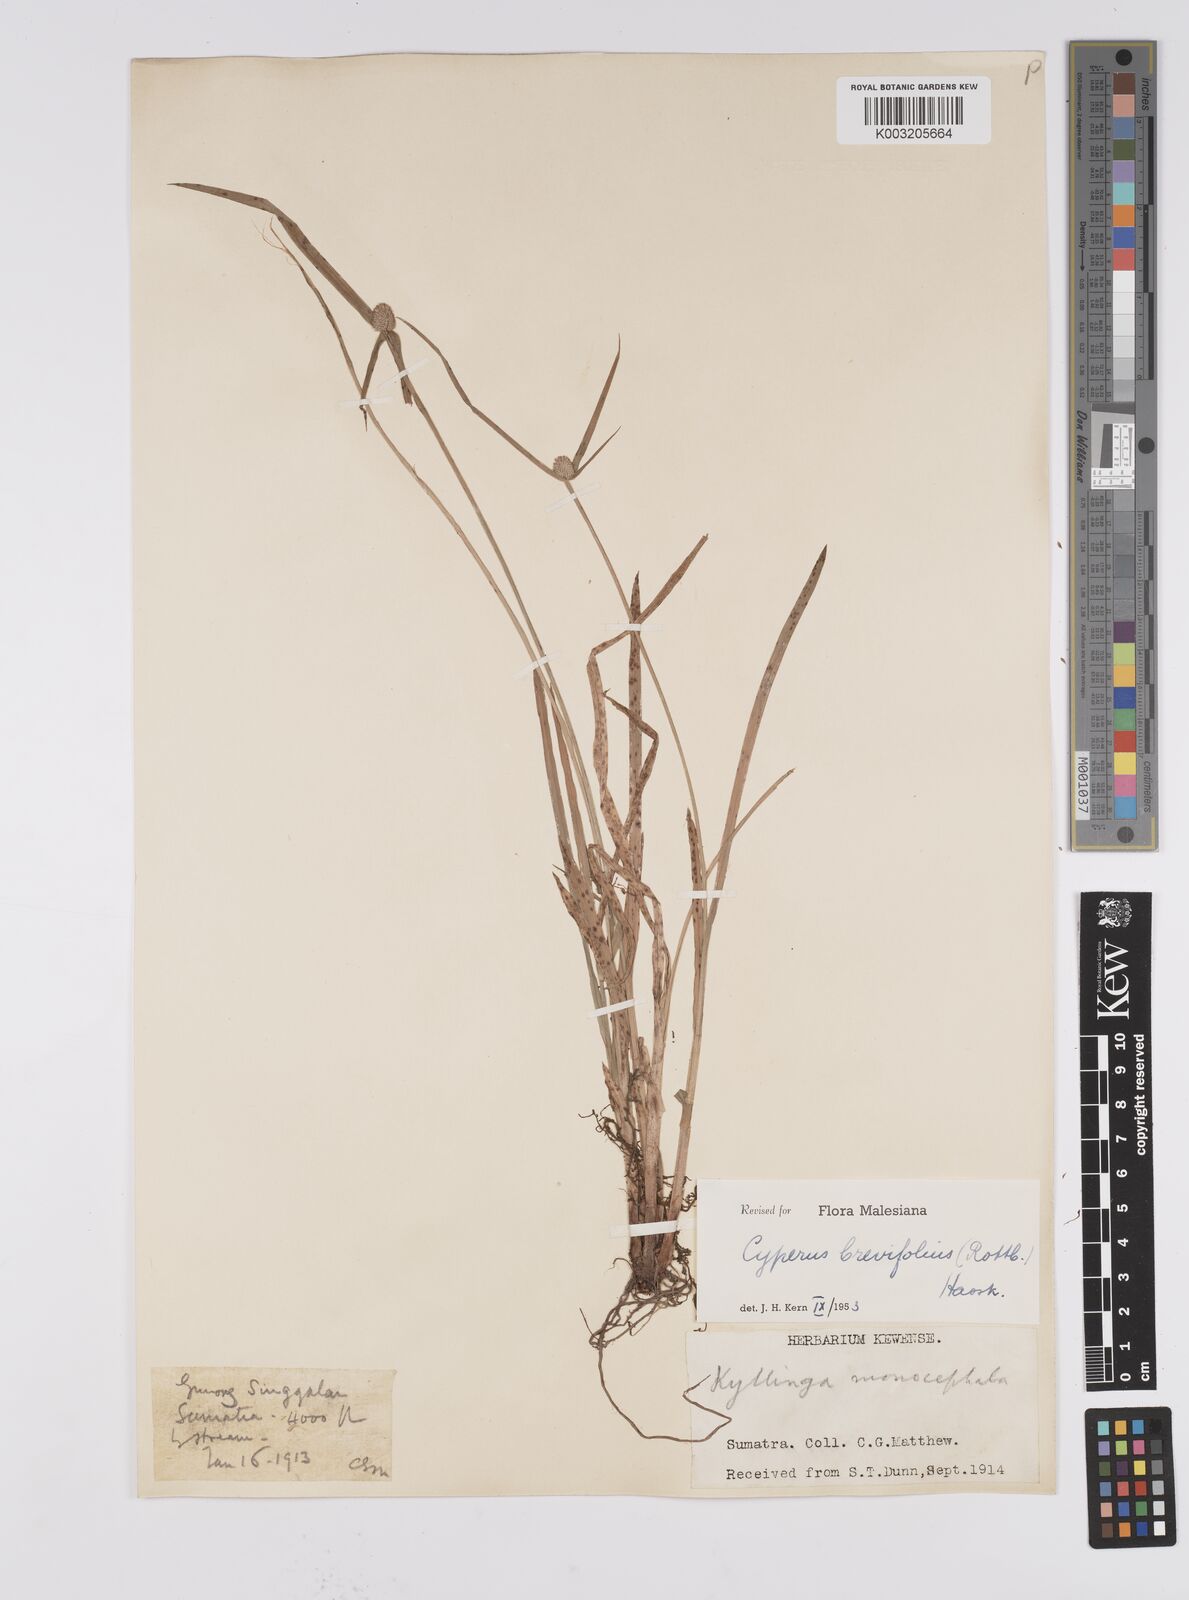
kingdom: Plantae
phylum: Tracheophyta
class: Liliopsida
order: Poales
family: Cyperaceae
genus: Cyperus
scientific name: Cyperus brevifolius
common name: Globe kyllinga
